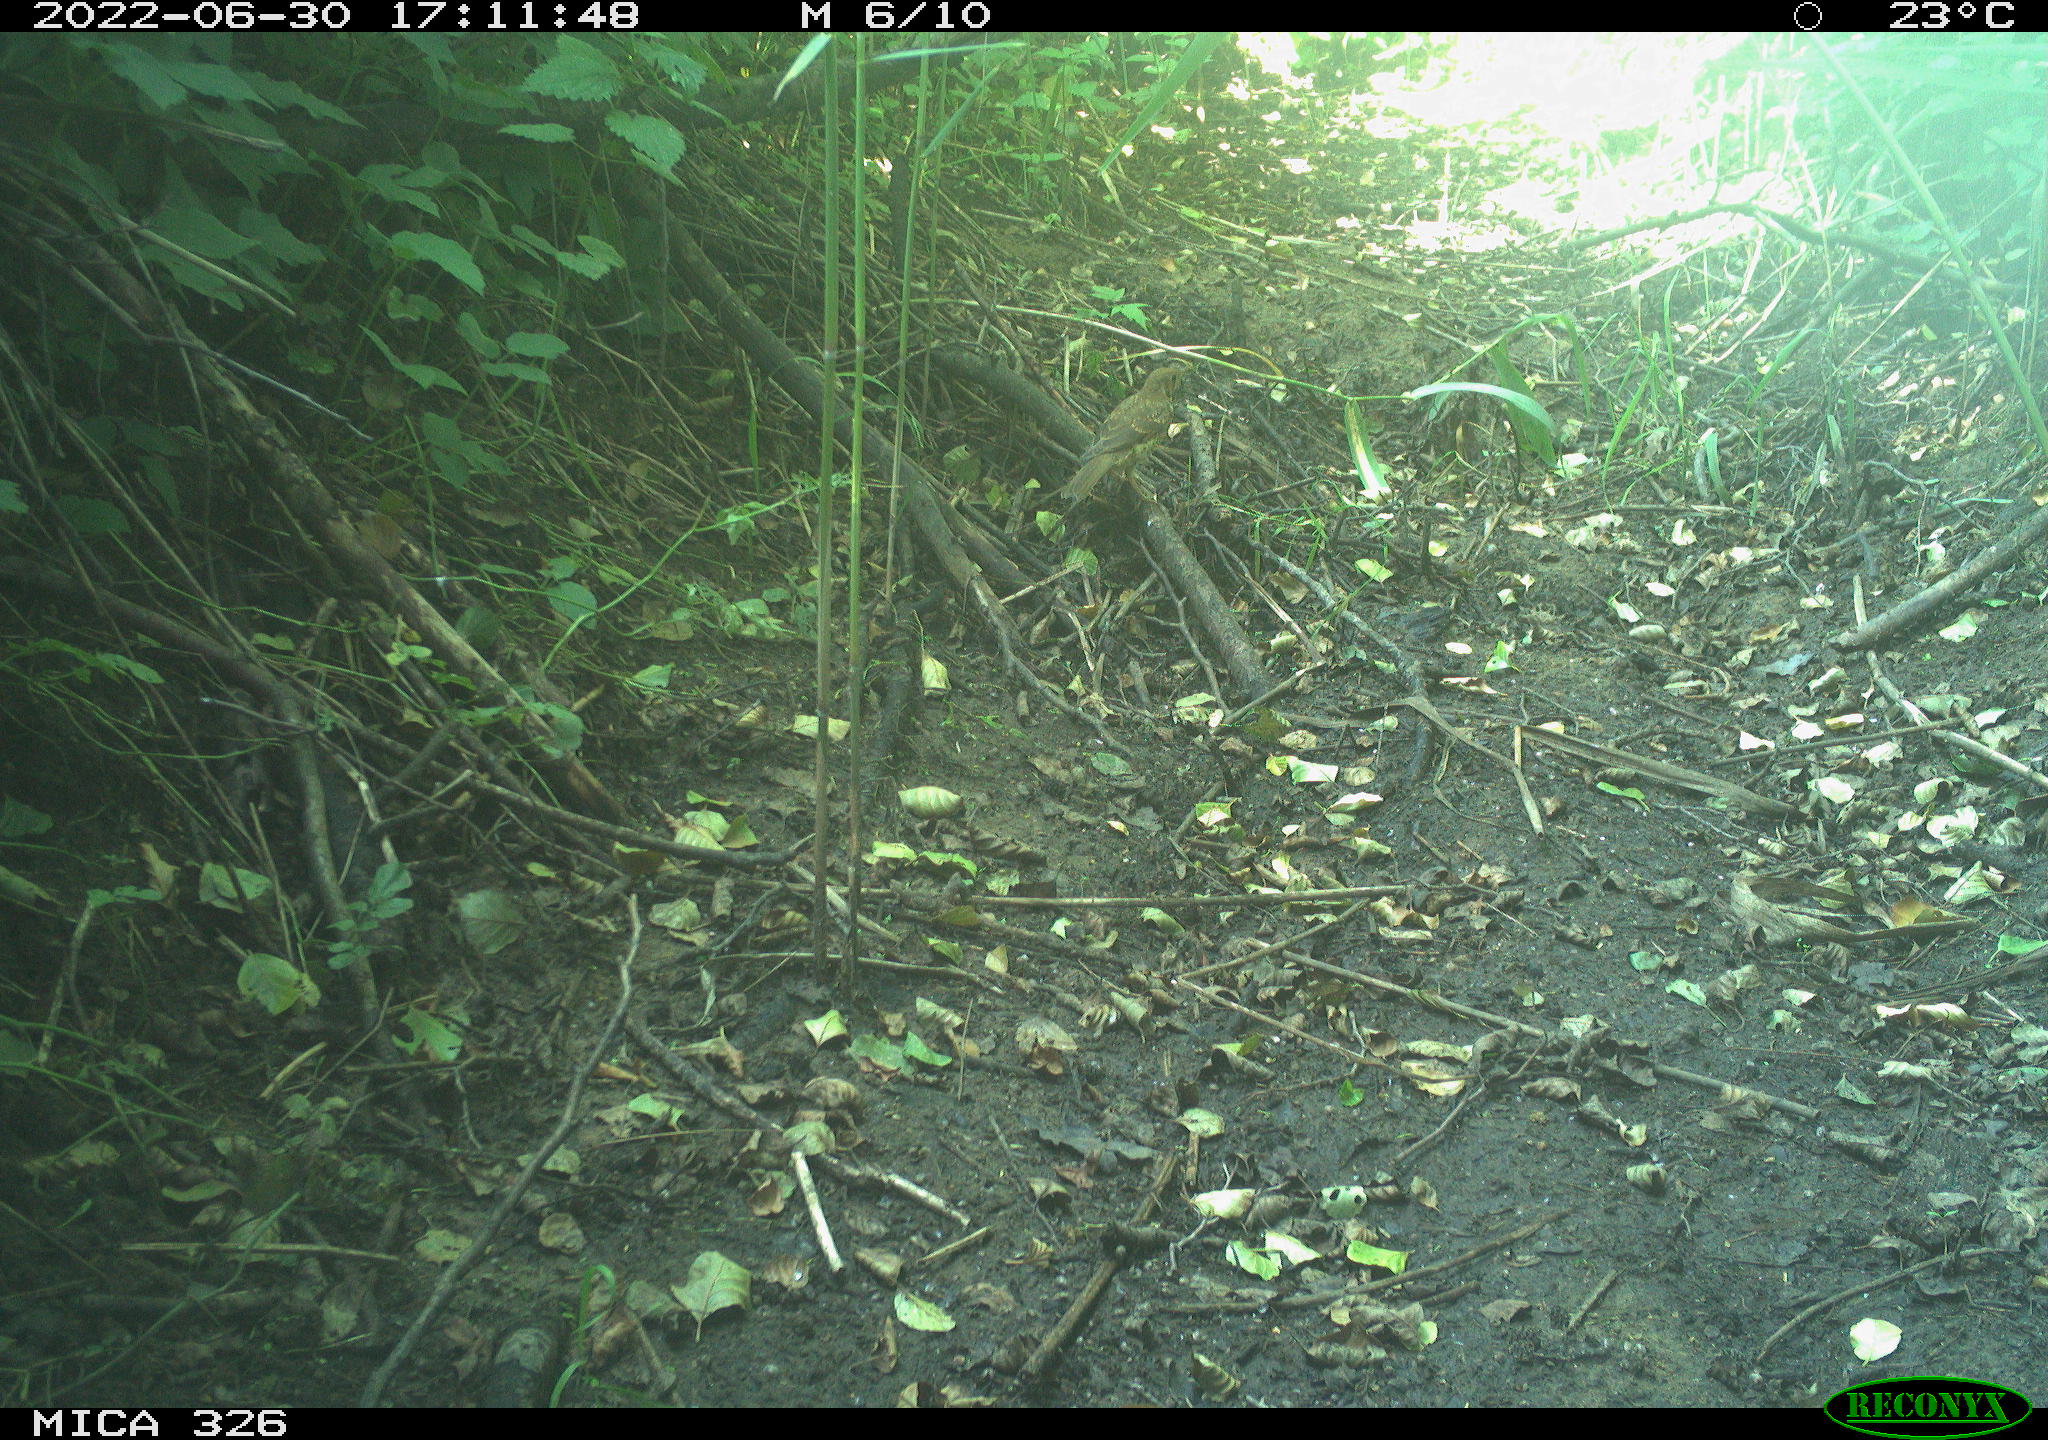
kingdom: Animalia
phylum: Chordata
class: Aves
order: Passeriformes
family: Turdidae
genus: Turdus
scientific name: Turdus
